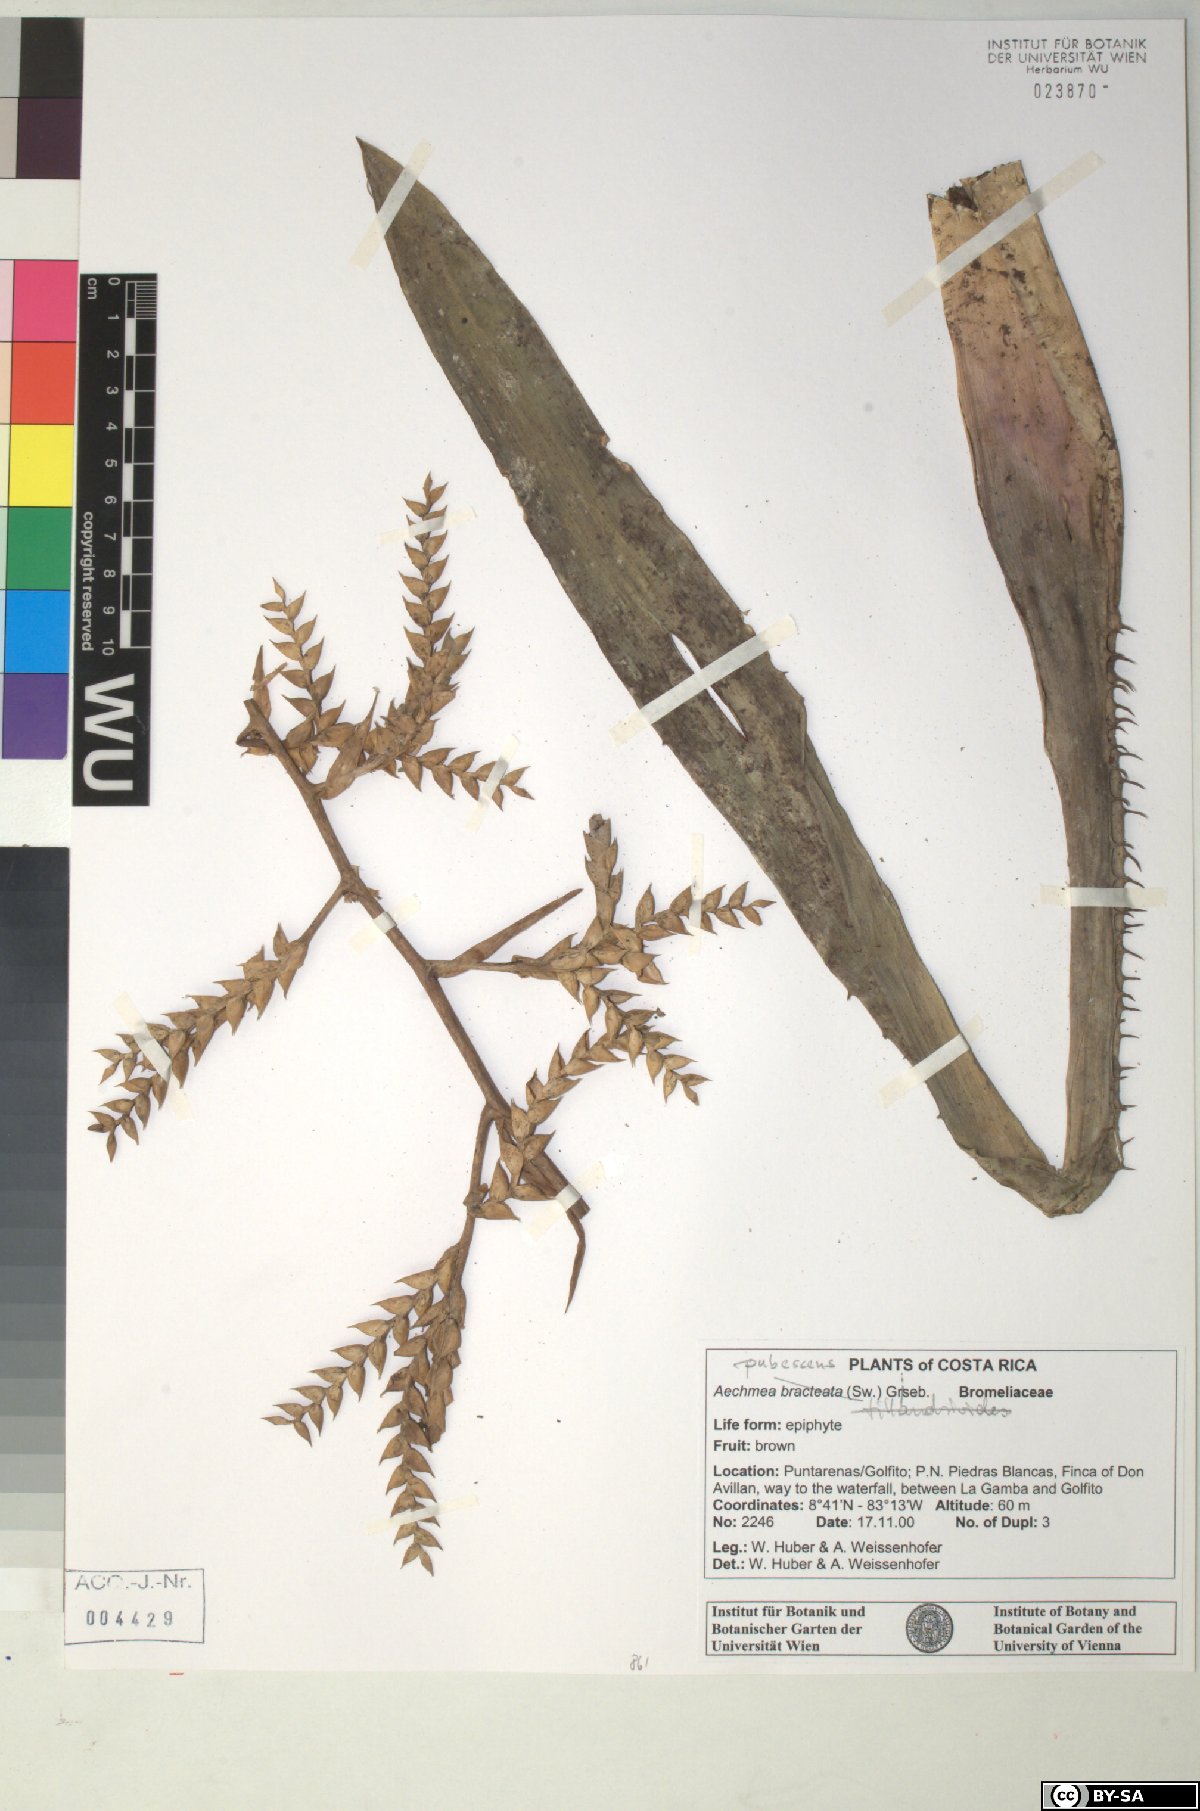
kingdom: Plantae
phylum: Tracheophyta
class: Liliopsida
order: Poales
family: Bromeliaceae
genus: Aechmea
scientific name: Aechmea bracteata
